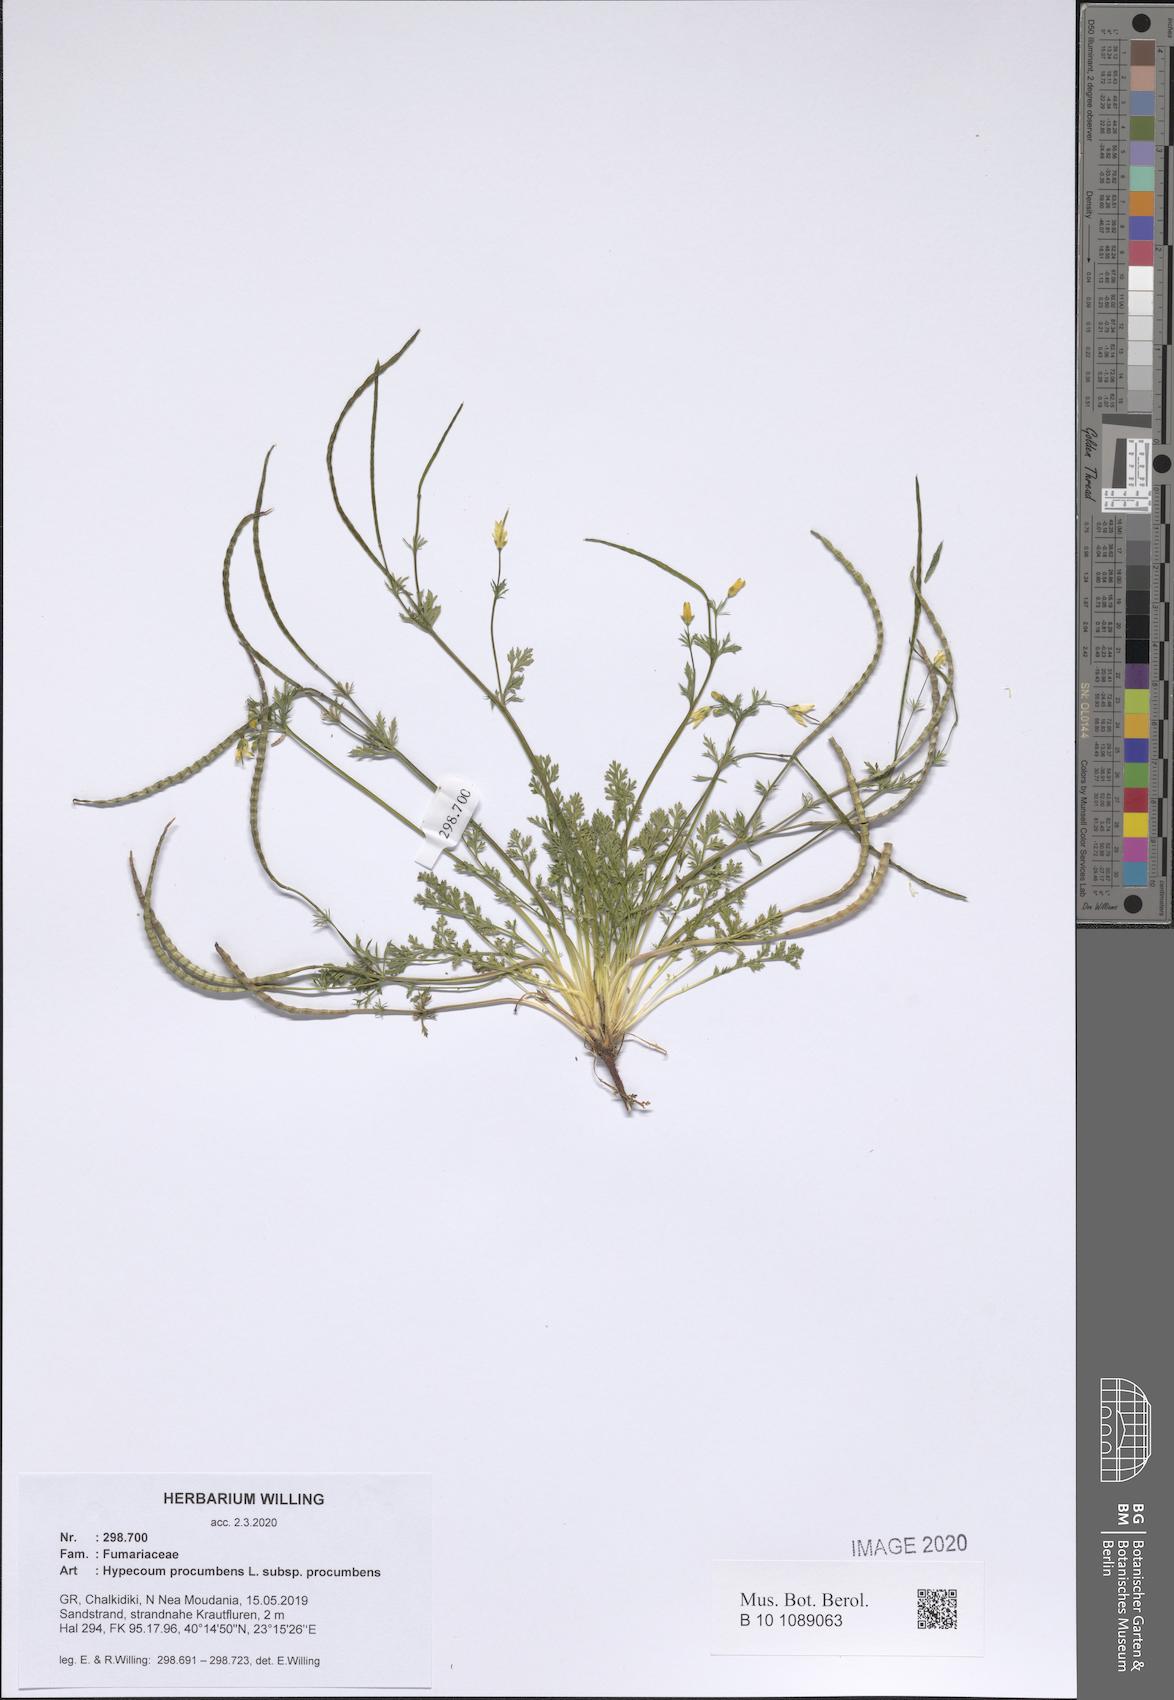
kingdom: Plantae
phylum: Tracheophyta
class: Magnoliopsida
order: Ranunculales
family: Papaveraceae
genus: Hypecoum
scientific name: Hypecoum procumbens
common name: Procumbent hypecoum
